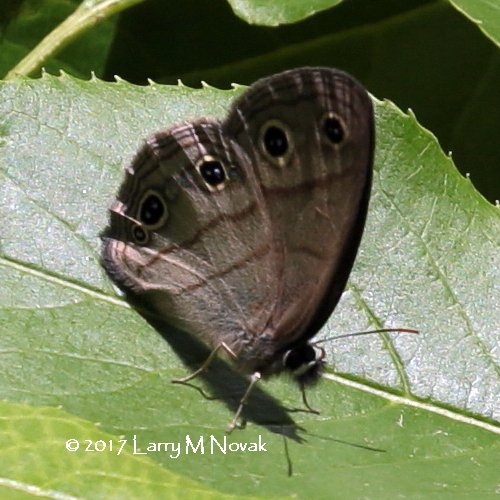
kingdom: Animalia
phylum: Arthropoda
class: Insecta
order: Lepidoptera
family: Nymphalidae
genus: Euptychia
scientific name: Euptychia cymela
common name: Little Wood Satyr
